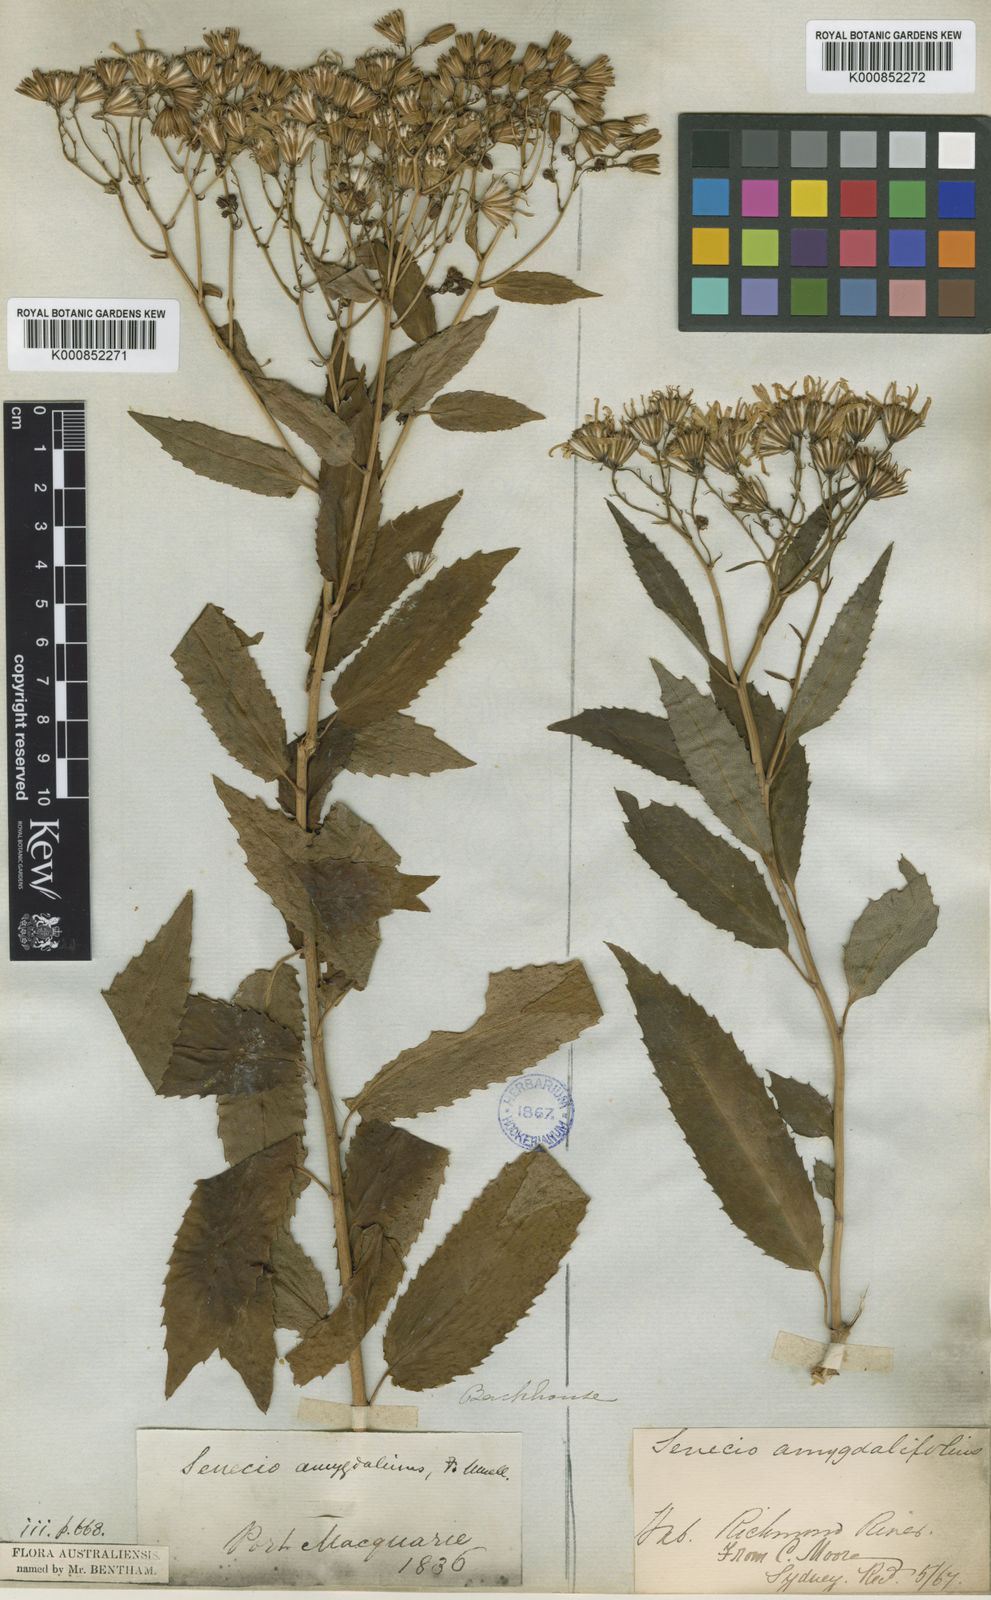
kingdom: Plantae
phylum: Tracheophyta
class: Magnoliopsida
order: Asterales
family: Asteraceae
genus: Lordhowea
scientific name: Lordhowea amygdalifolia
